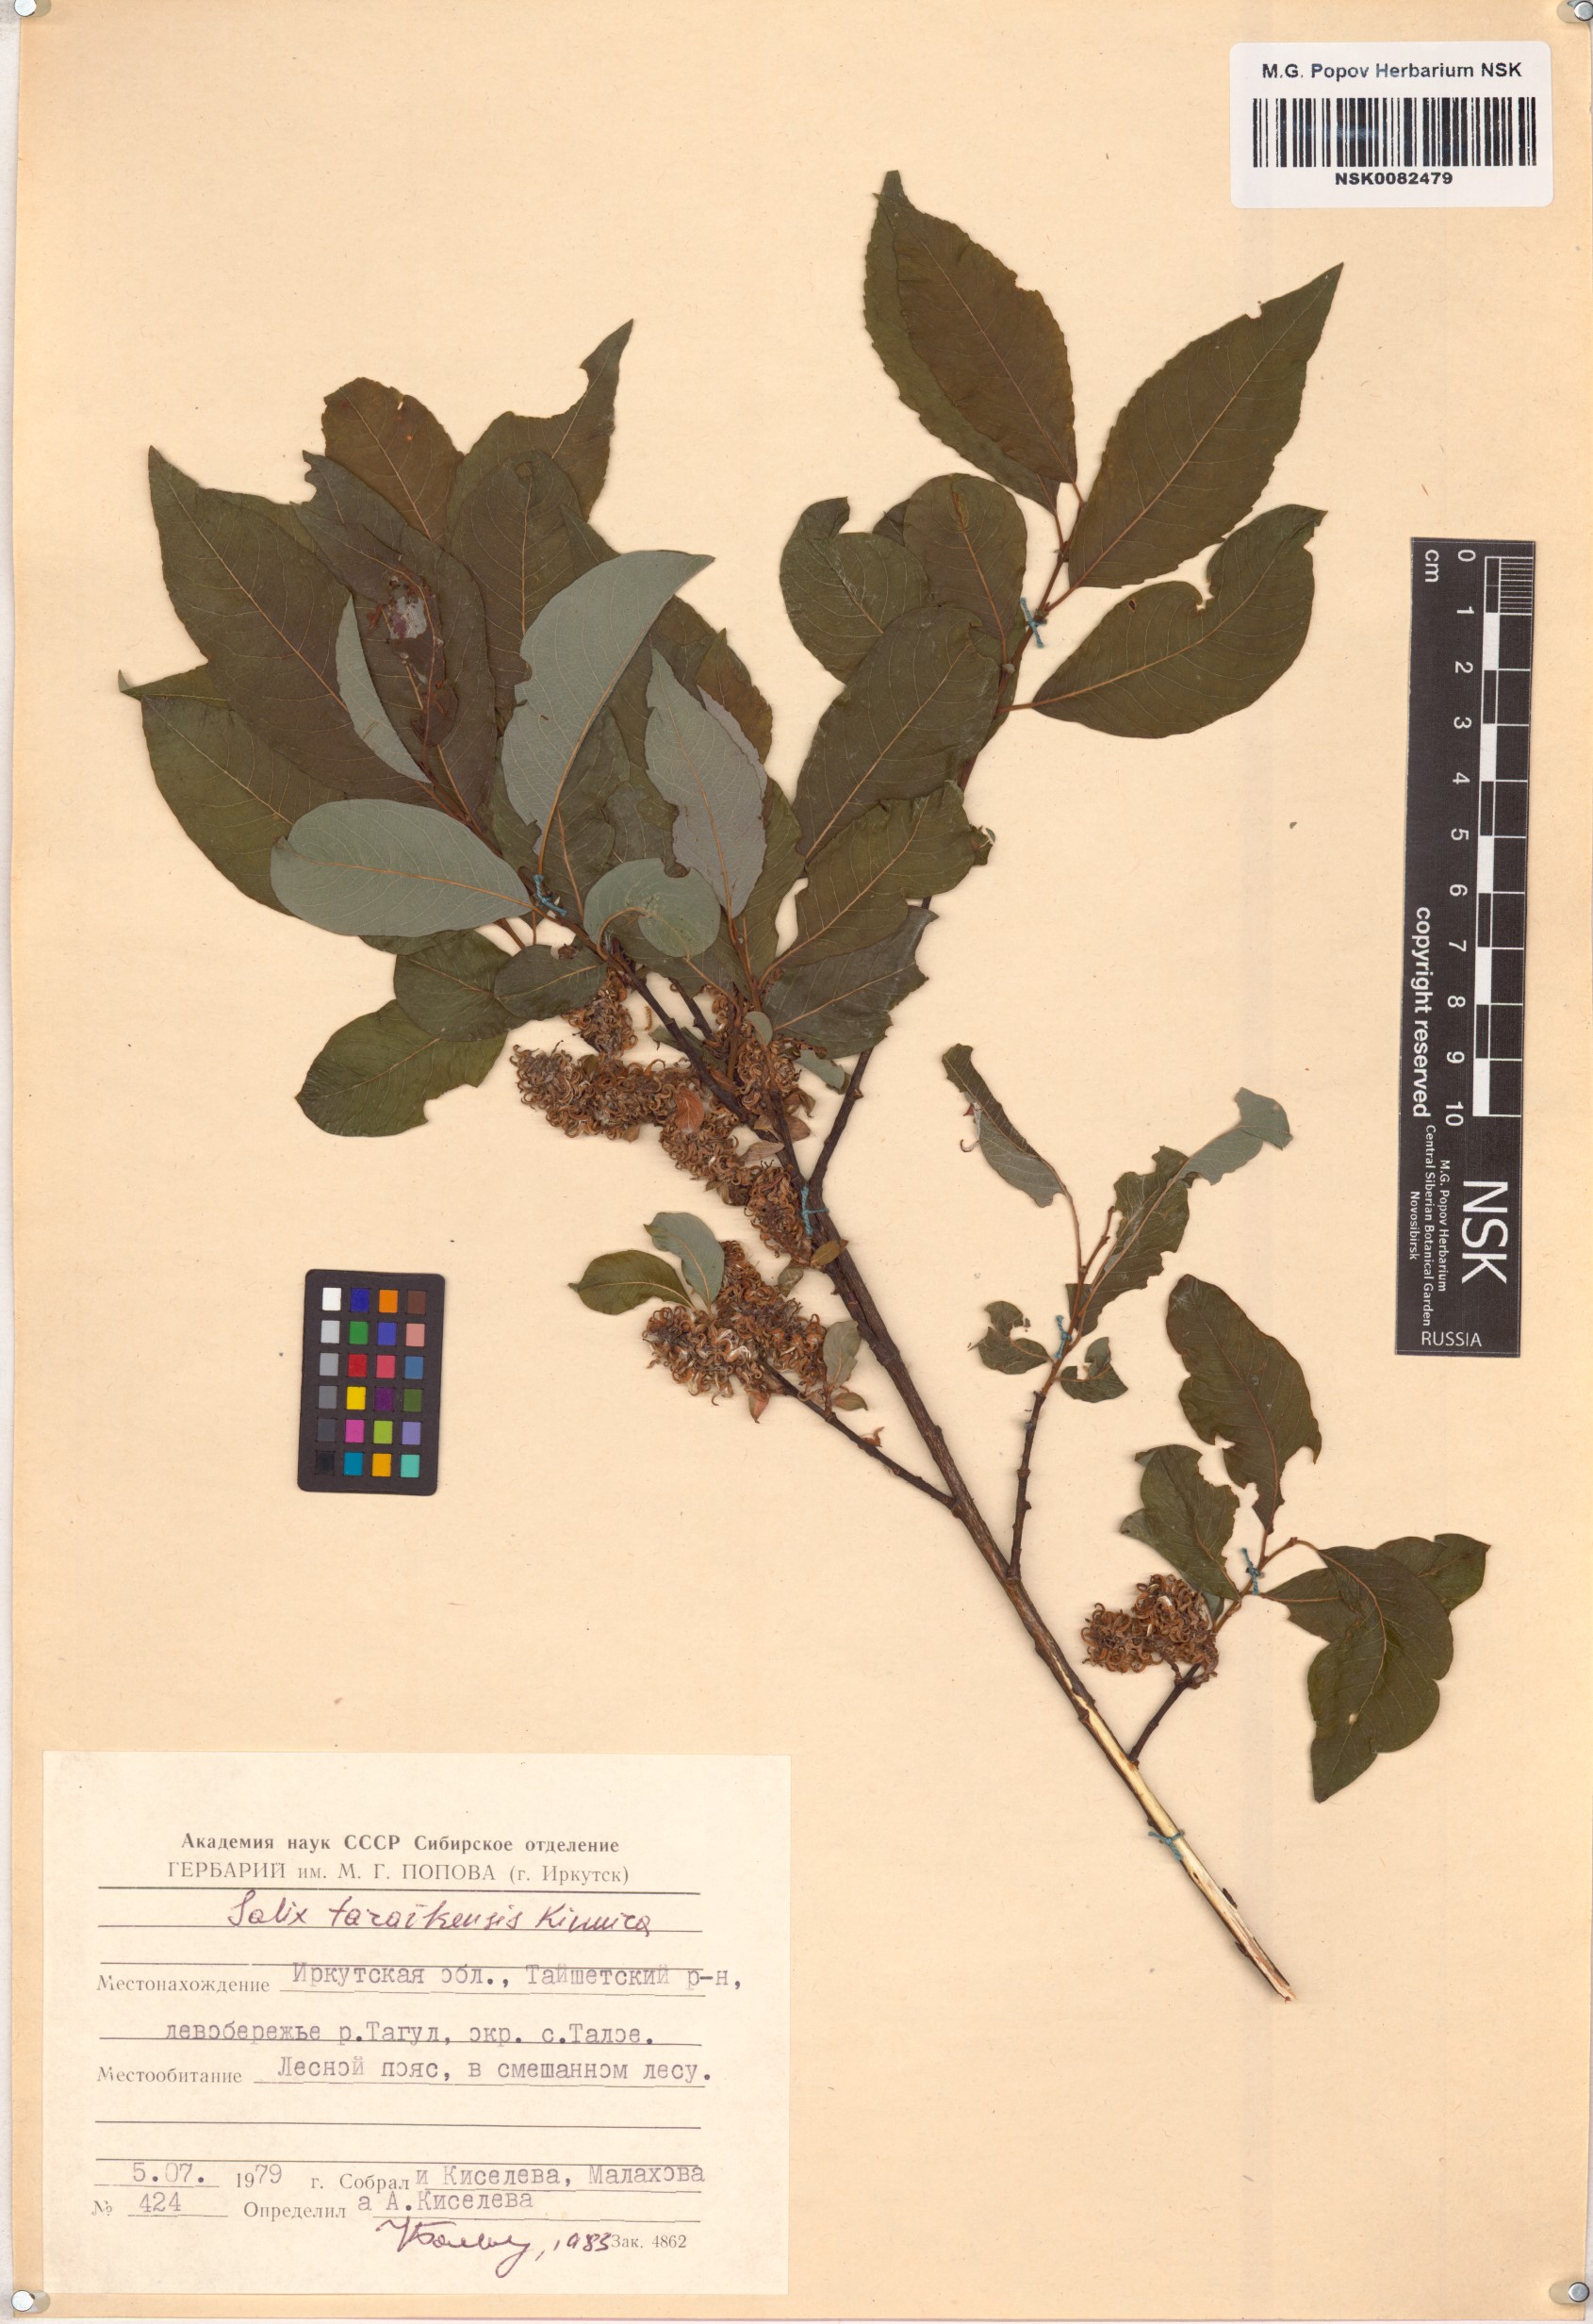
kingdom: Plantae
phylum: Tracheophyta
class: Magnoliopsida
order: Malpighiales
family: Salicaceae
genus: Salix
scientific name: Salix taraikensis
